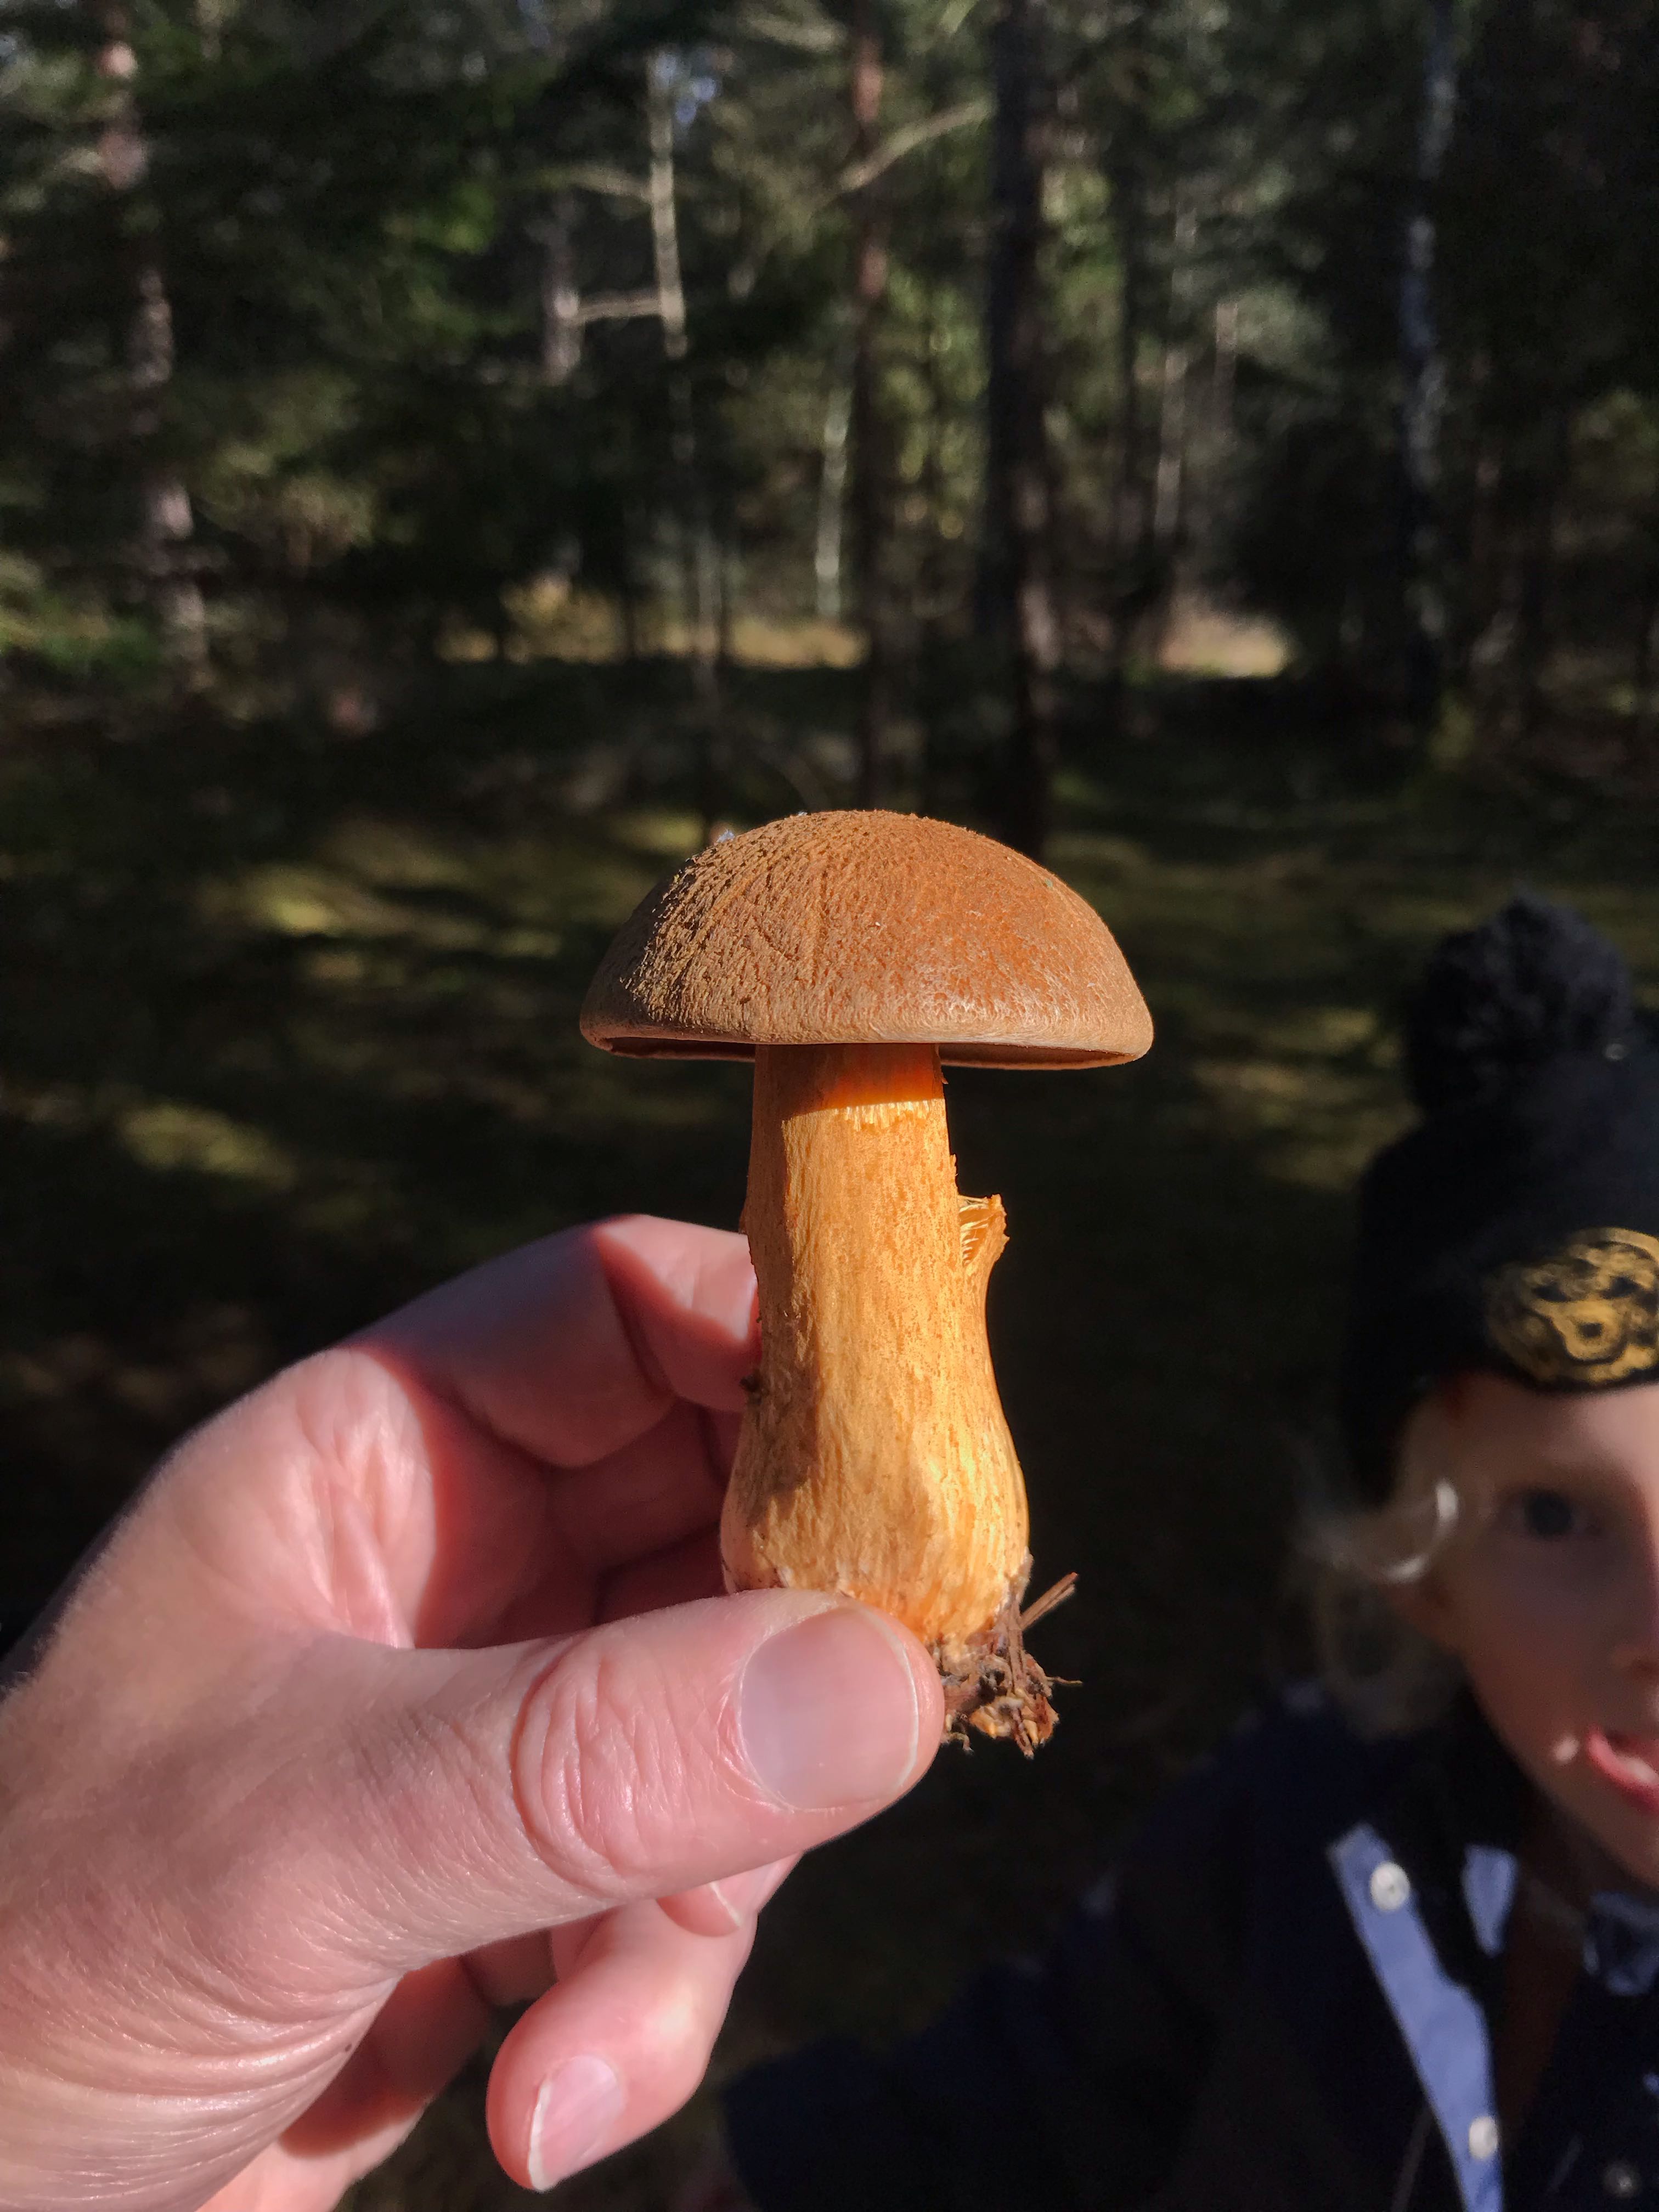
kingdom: Fungi
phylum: Basidiomycota
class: Agaricomycetes
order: Boletales
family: Suillaceae
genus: Suillus
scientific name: Suillus variegatus
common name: broget slimrørhat
